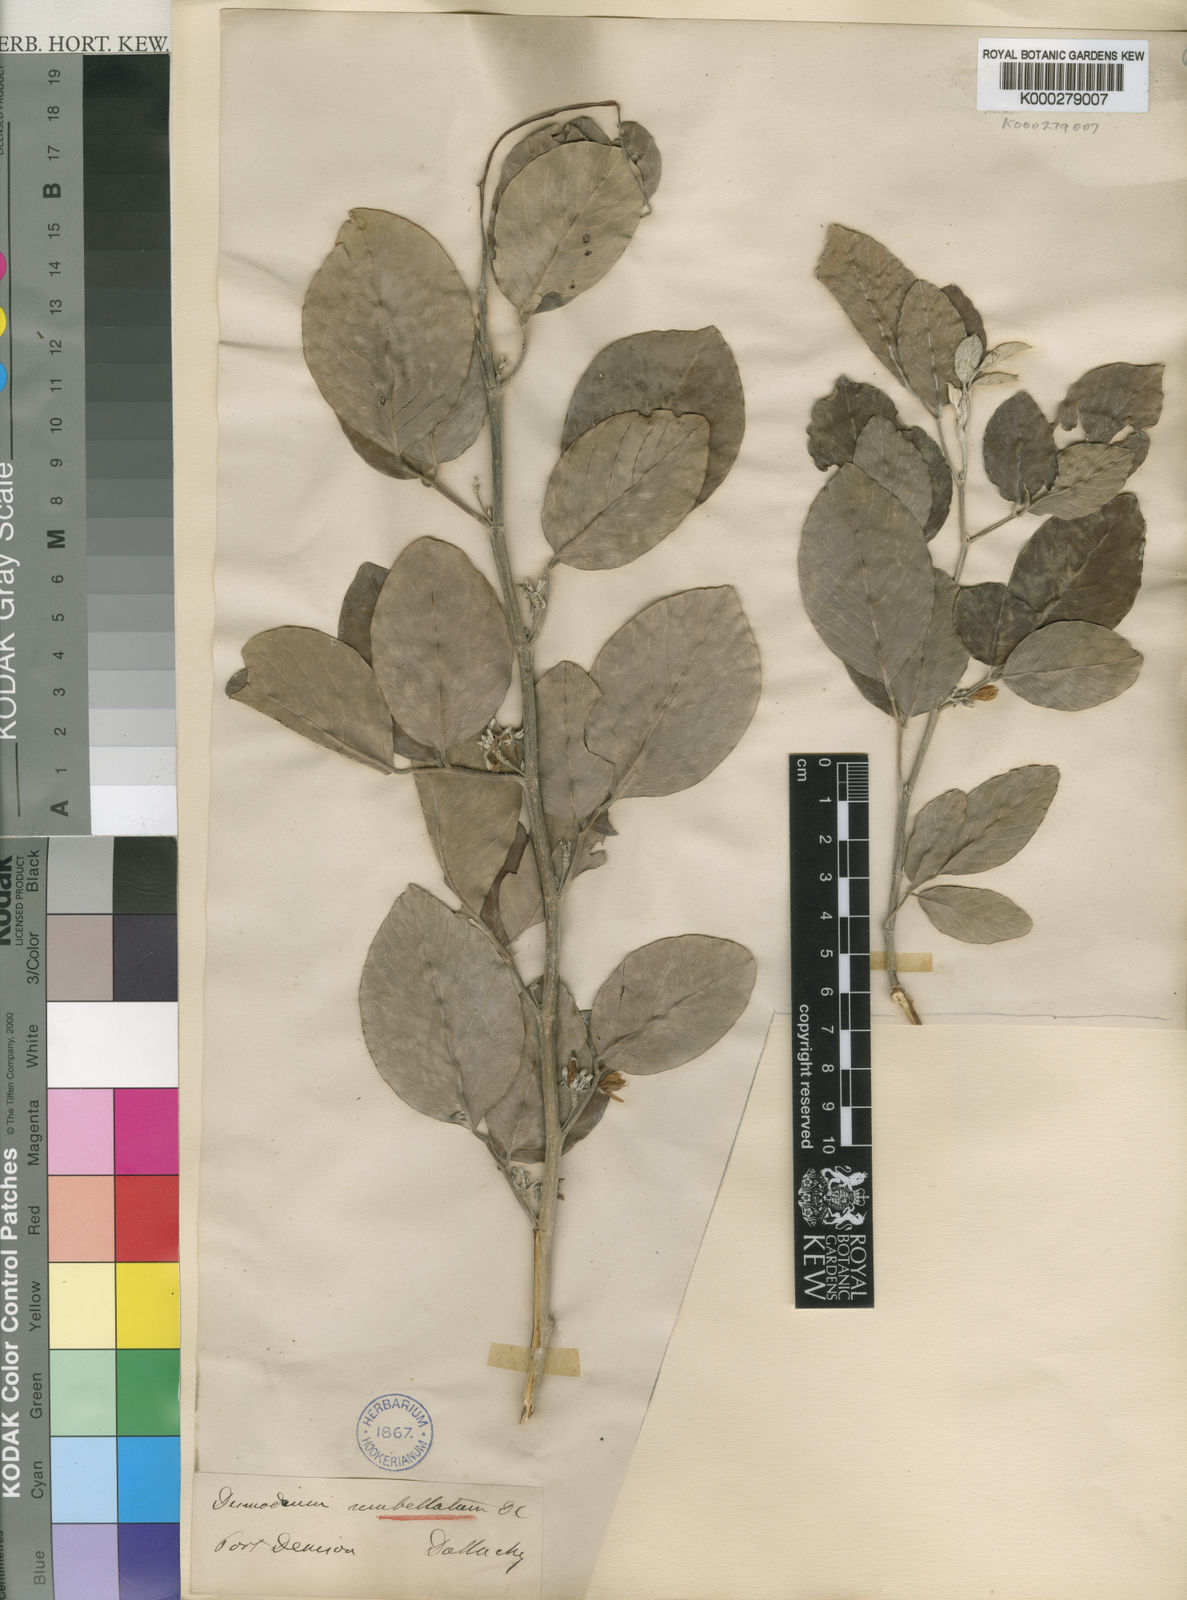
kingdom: Plantae
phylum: Tracheophyta
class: Magnoliopsida
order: Fabales
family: Fabaceae
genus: Dendrolobium
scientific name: Dendrolobium umbellatum
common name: Horsebush
